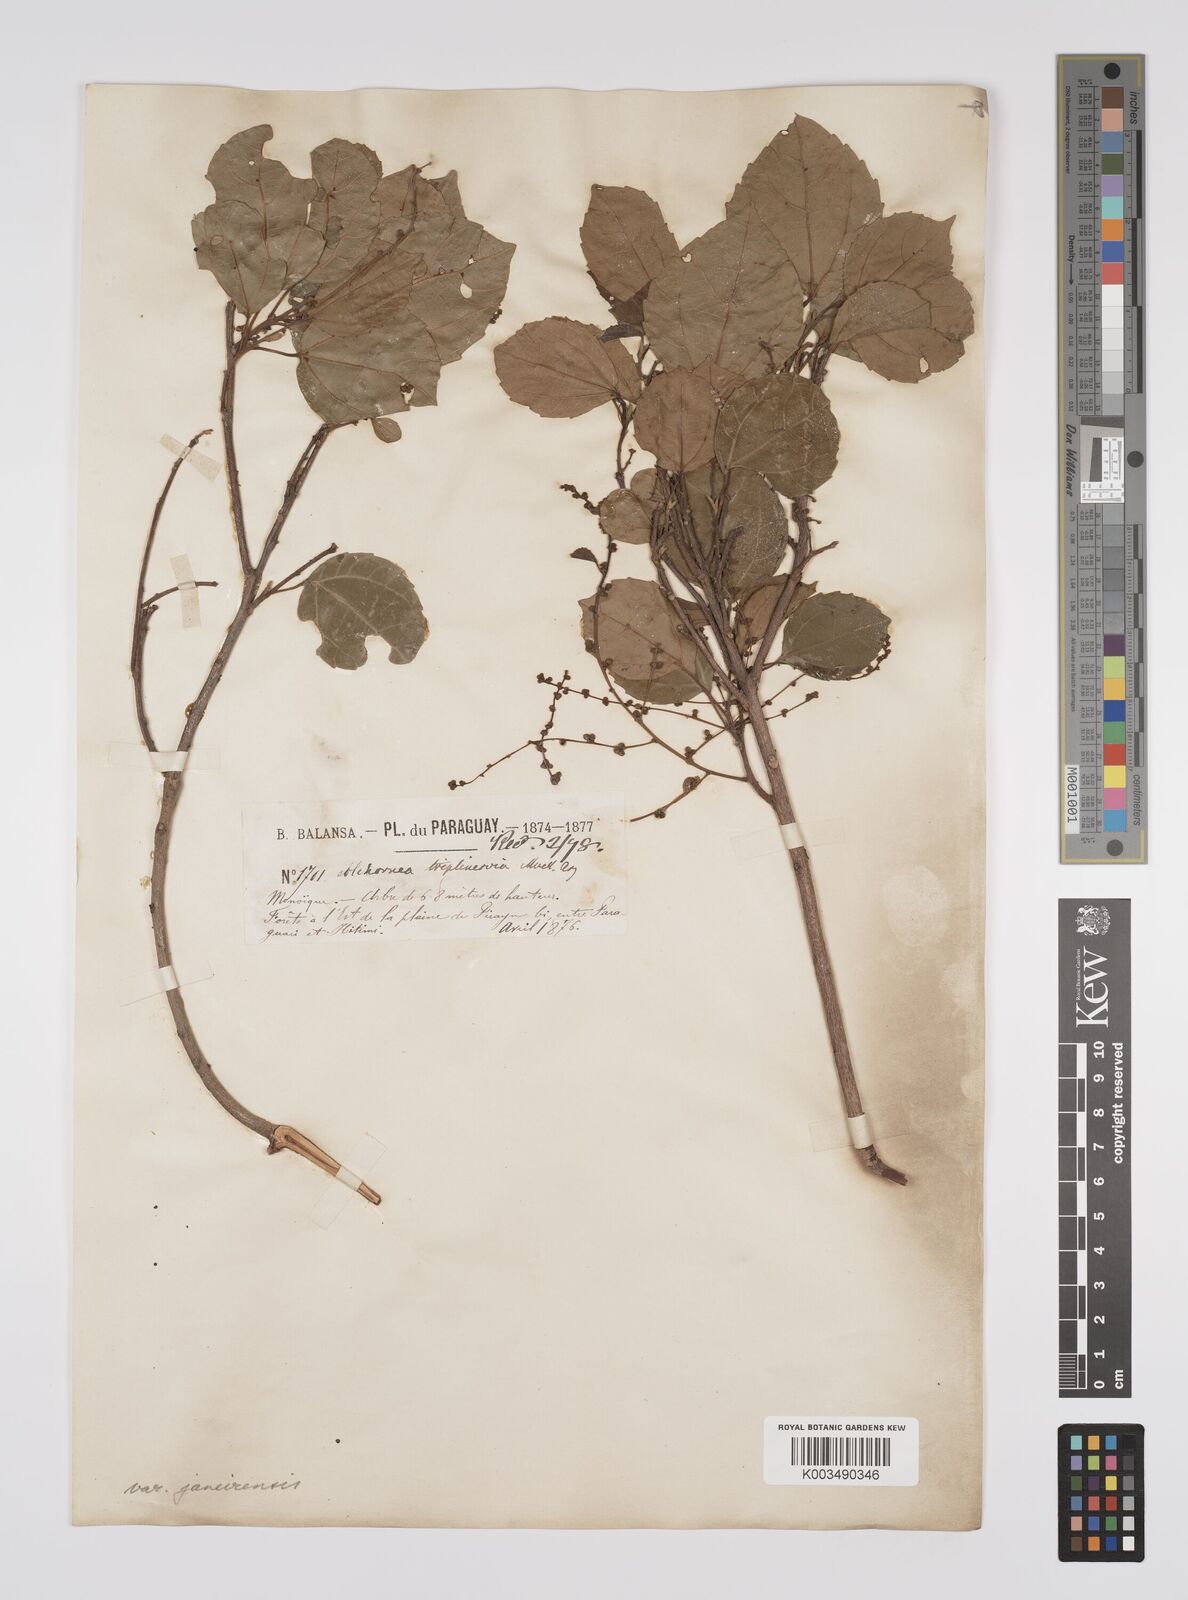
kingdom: Plantae
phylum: Tracheophyta
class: Magnoliopsida
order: Malpighiales
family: Euphorbiaceae
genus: Alchornea
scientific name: Alchornea triplinervia
